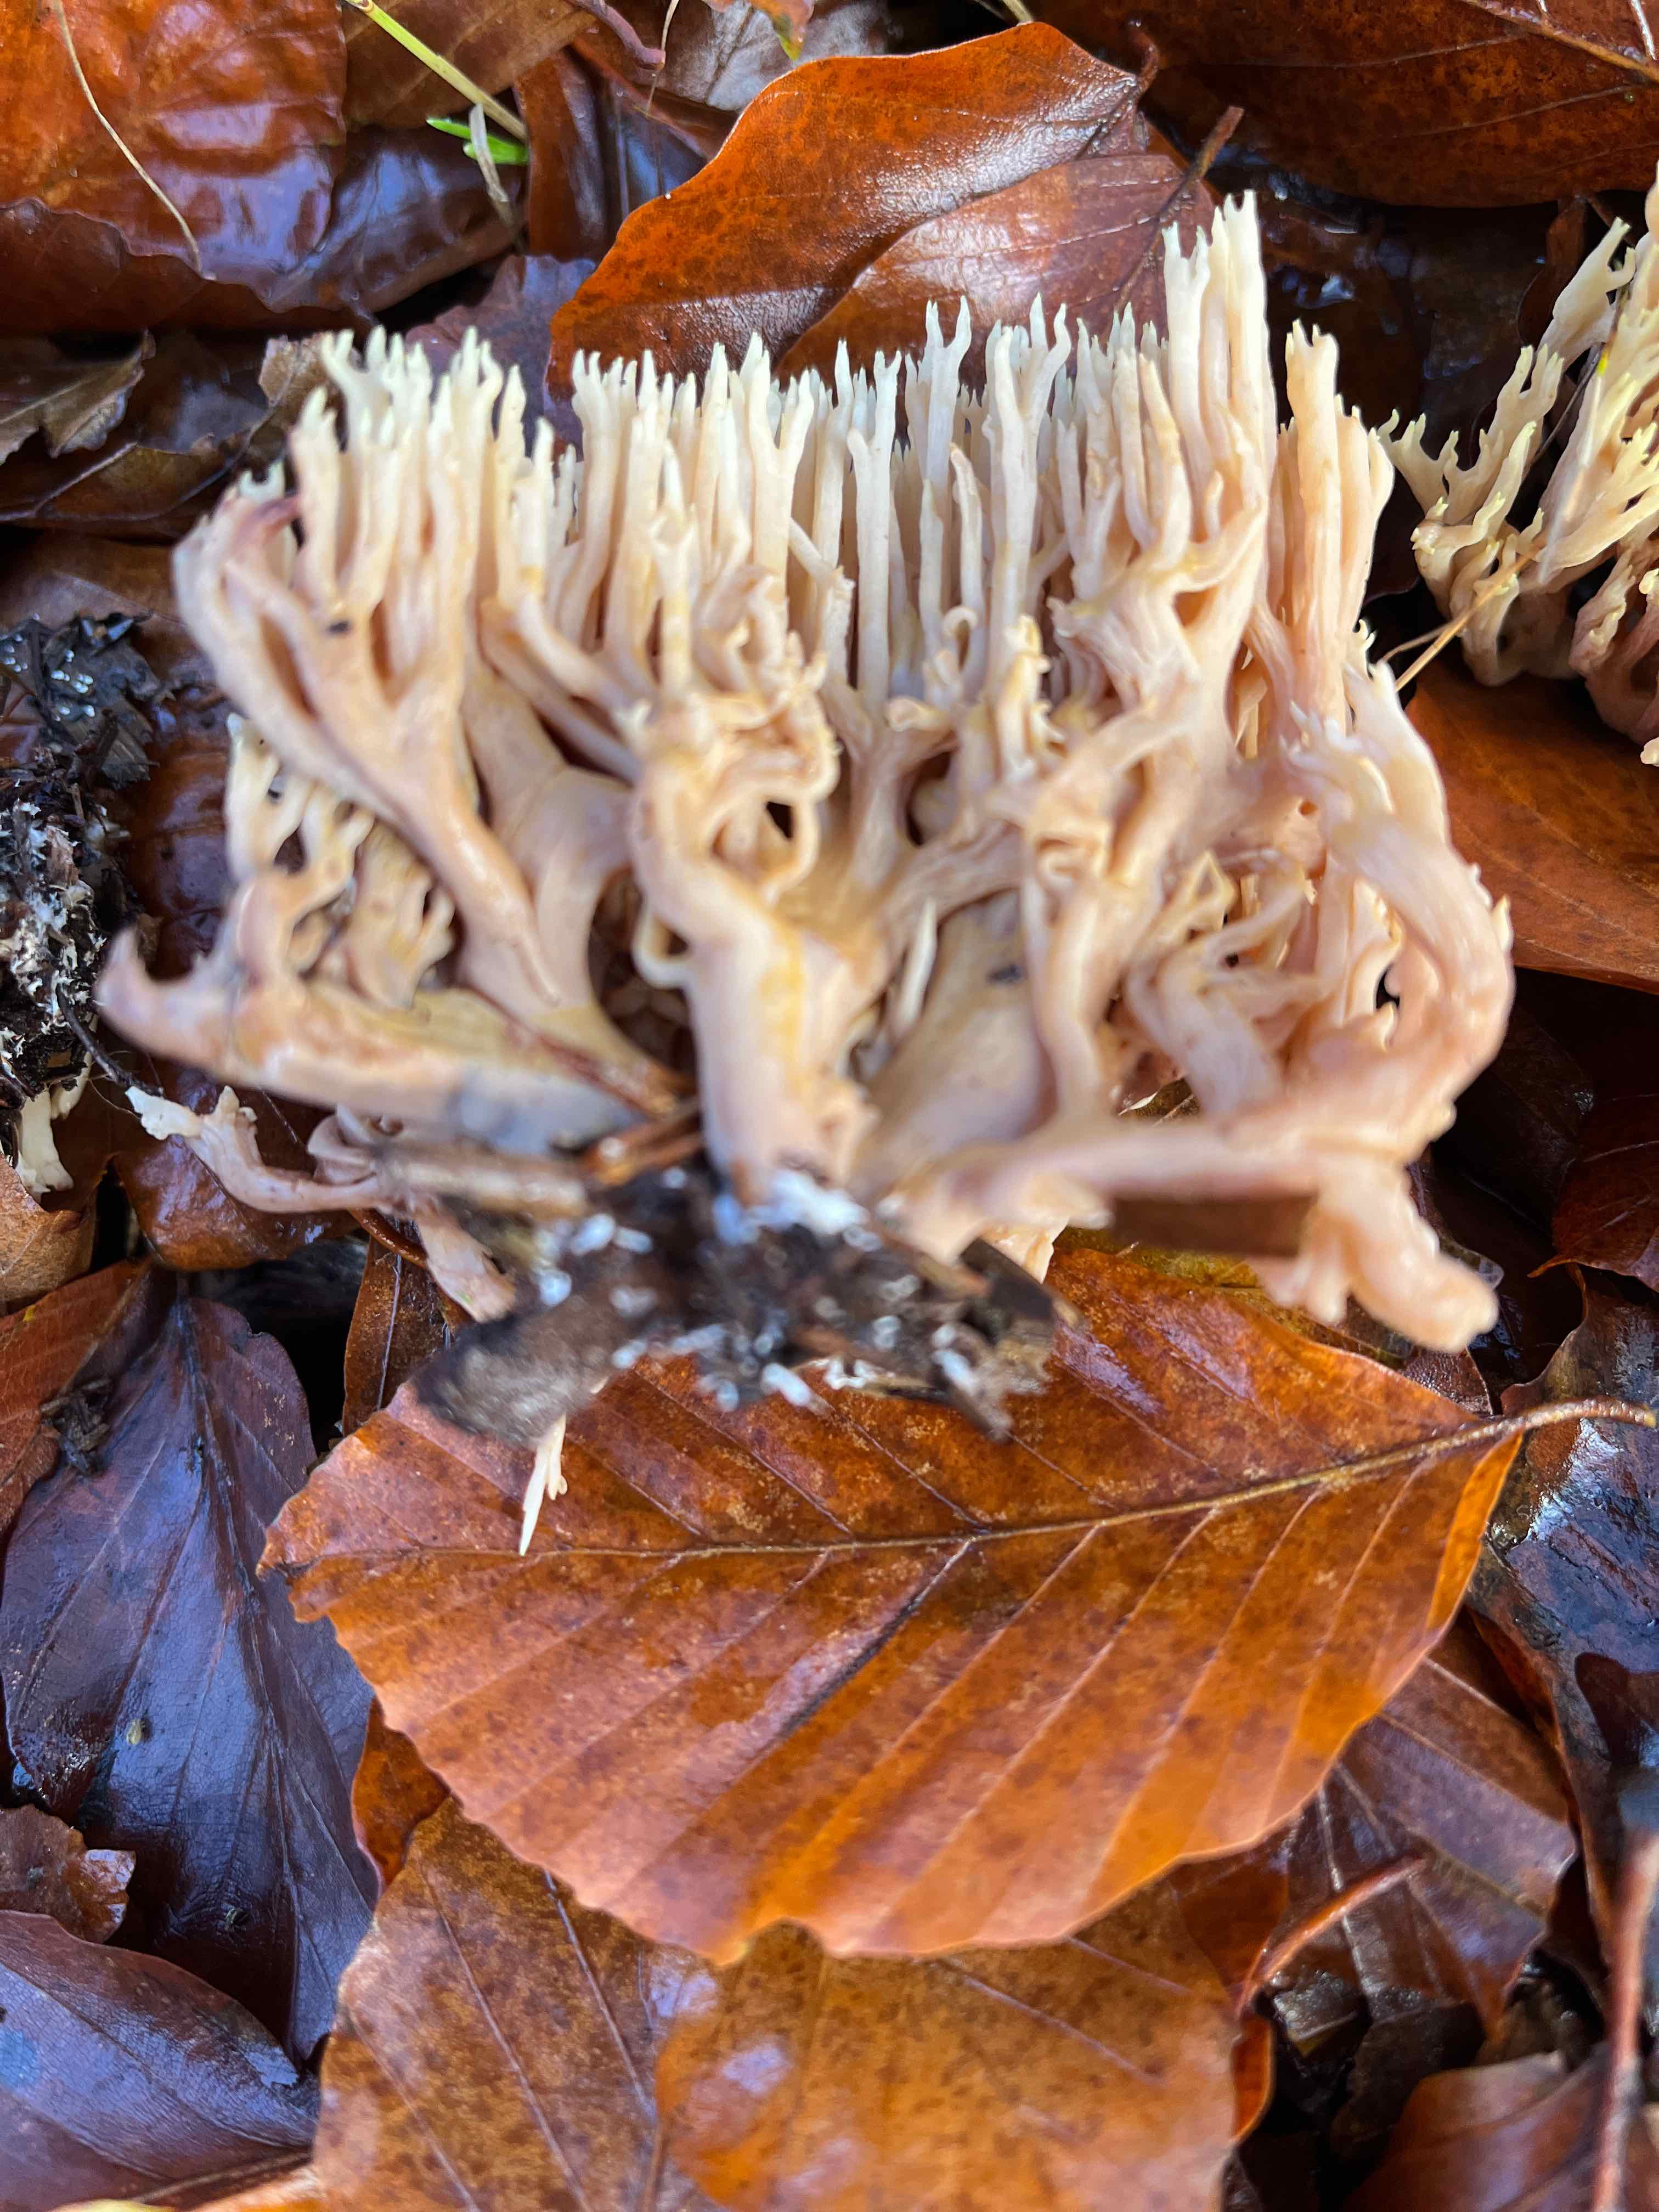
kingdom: Fungi
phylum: Basidiomycota
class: Agaricomycetes
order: Gomphales
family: Gomphaceae
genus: Ramaria
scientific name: Ramaria stricta
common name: rank koralsvamp
